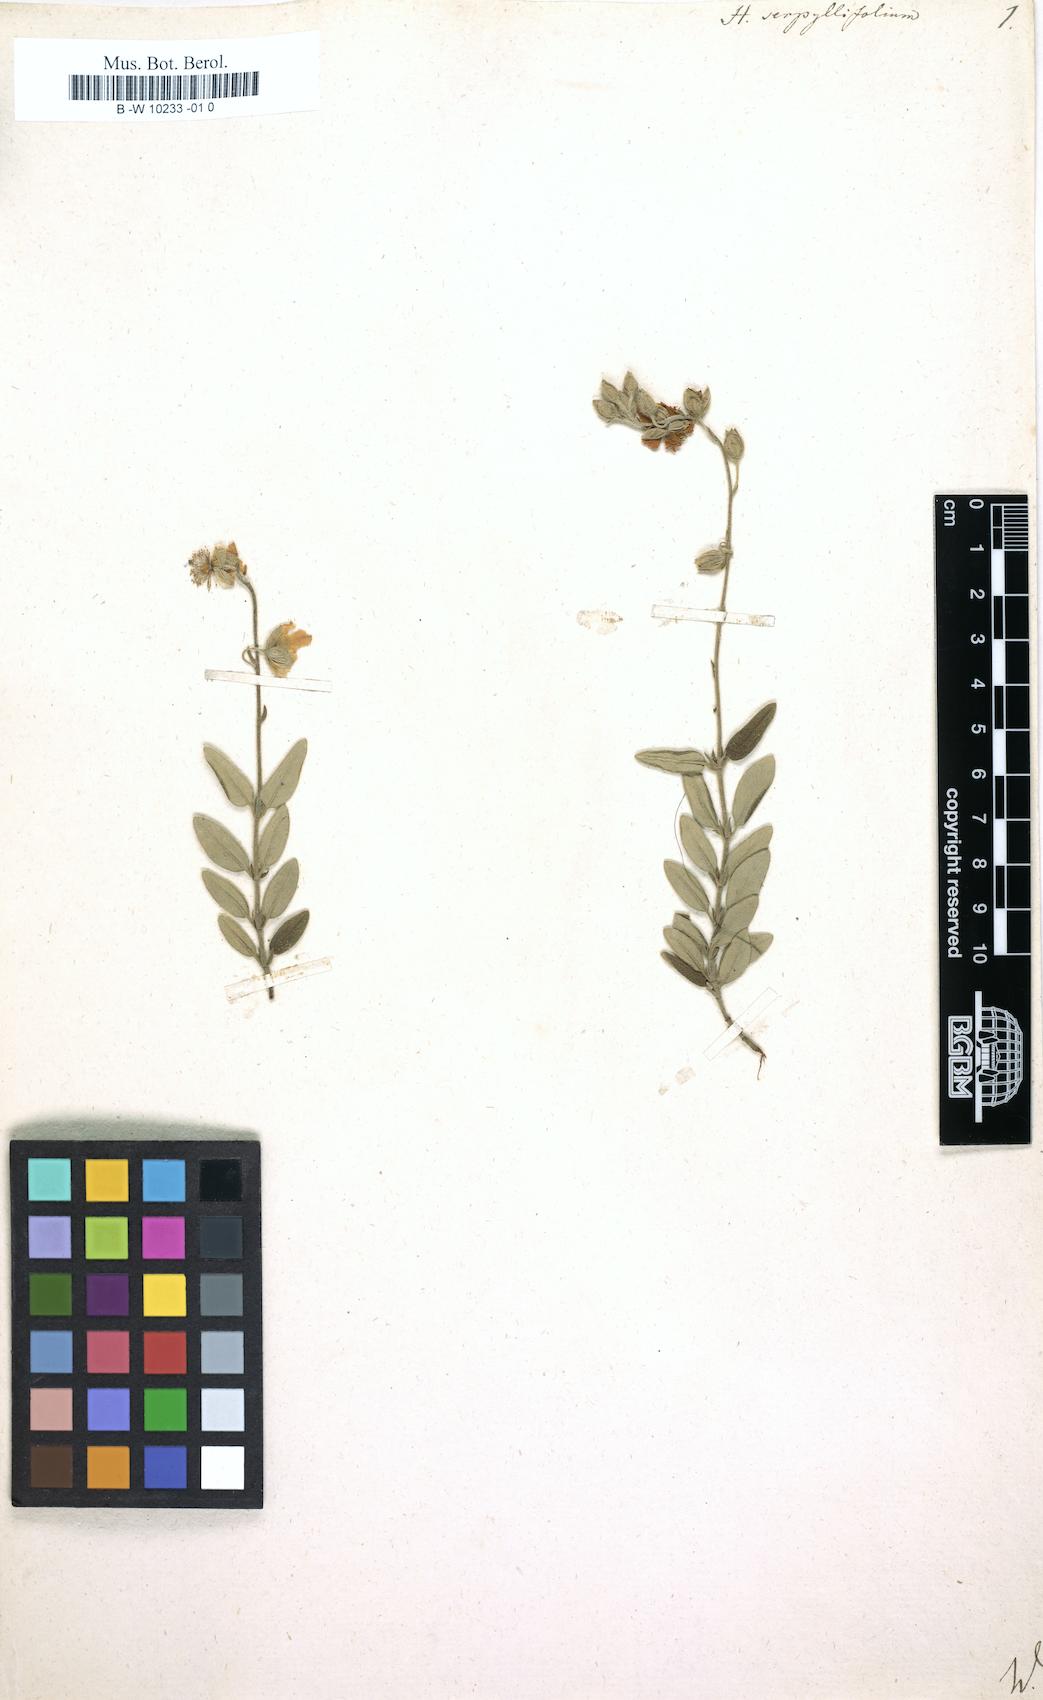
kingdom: Plantae
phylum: Tracheophyta
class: Magnoliopsida
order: Malvales
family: Cistaceae
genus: Helianthemum
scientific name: Helianthemum nummularium
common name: Common rock-rose
